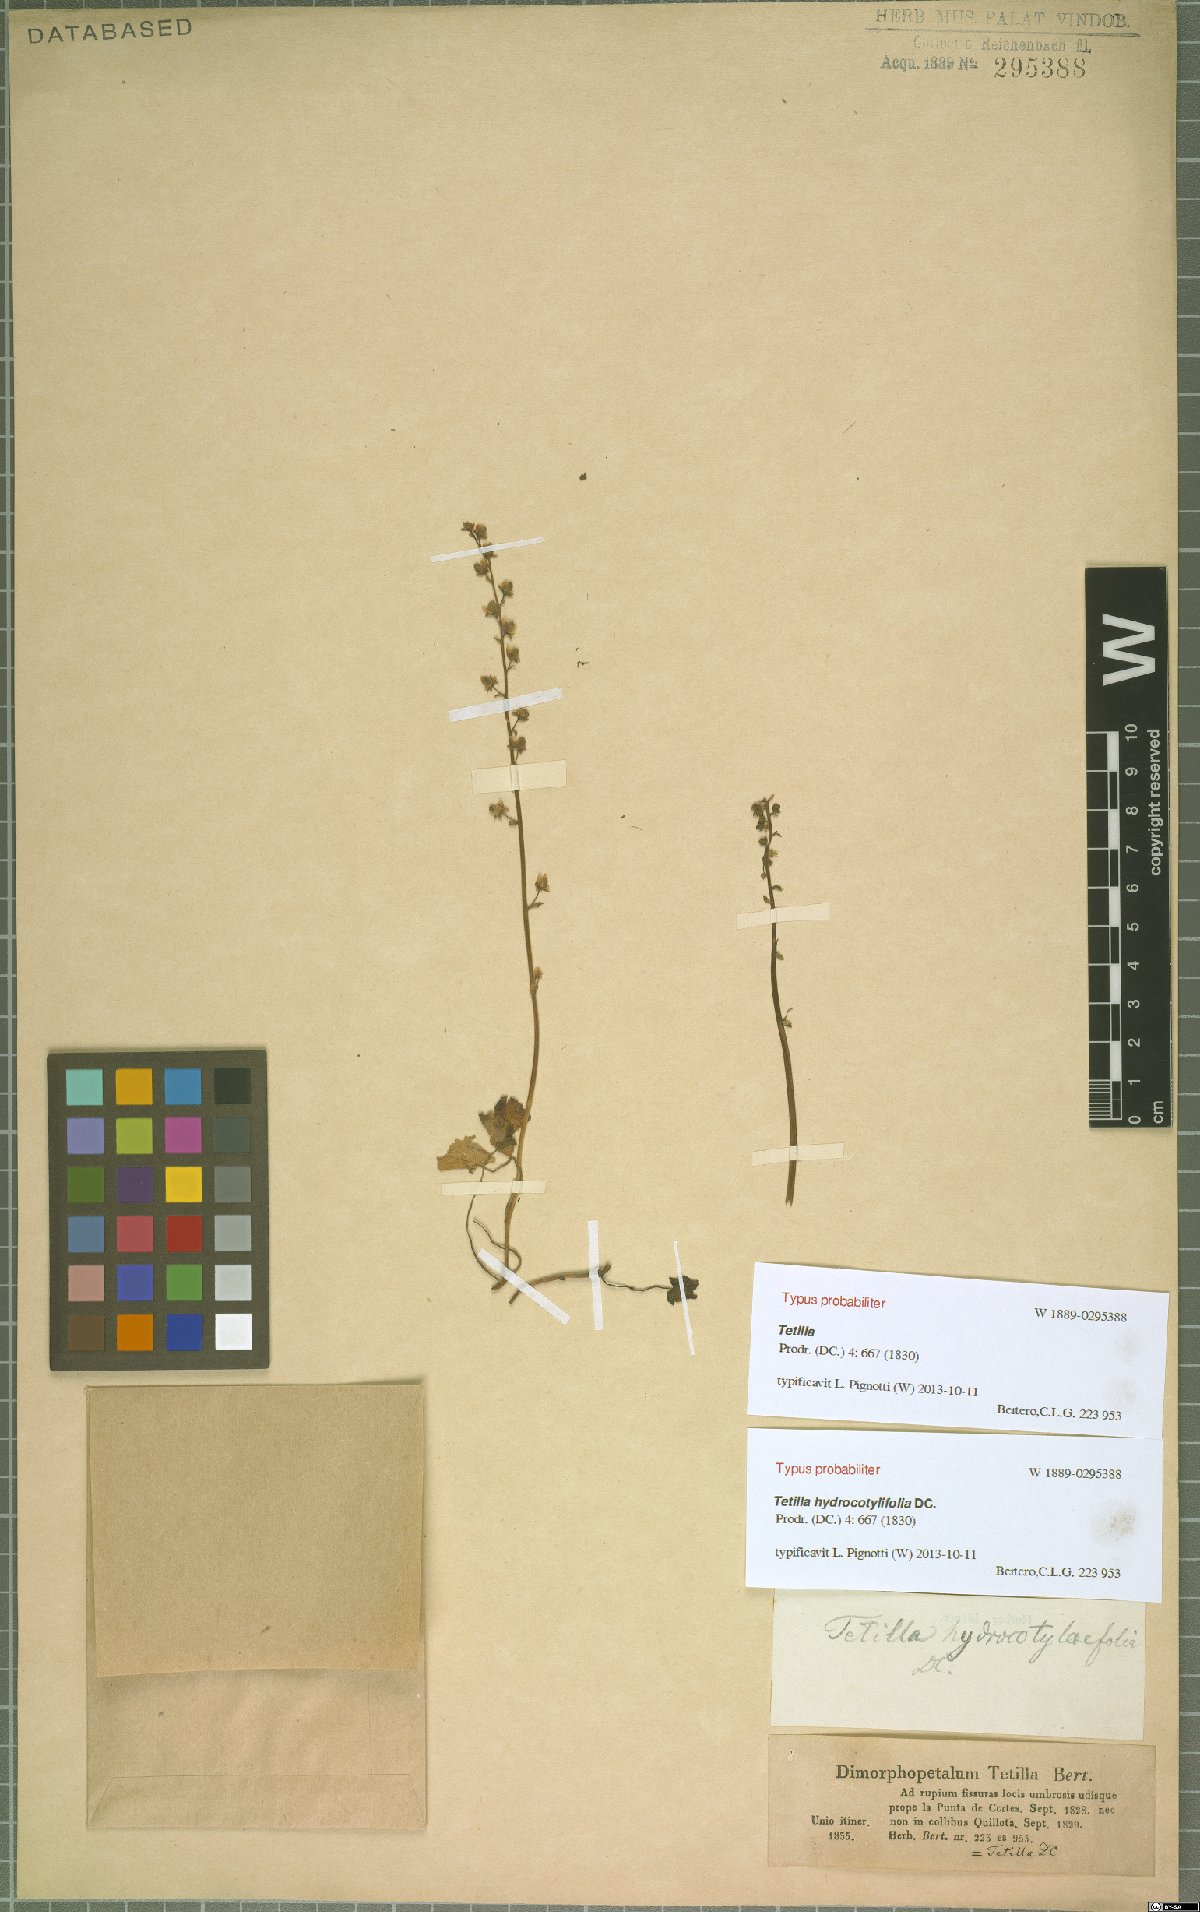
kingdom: Plantae
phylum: Tracheophyta
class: Magnoliopsida
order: Geraniales
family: Francoaceae
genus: Tetilla
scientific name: Tetilla hydrocotylifolia
